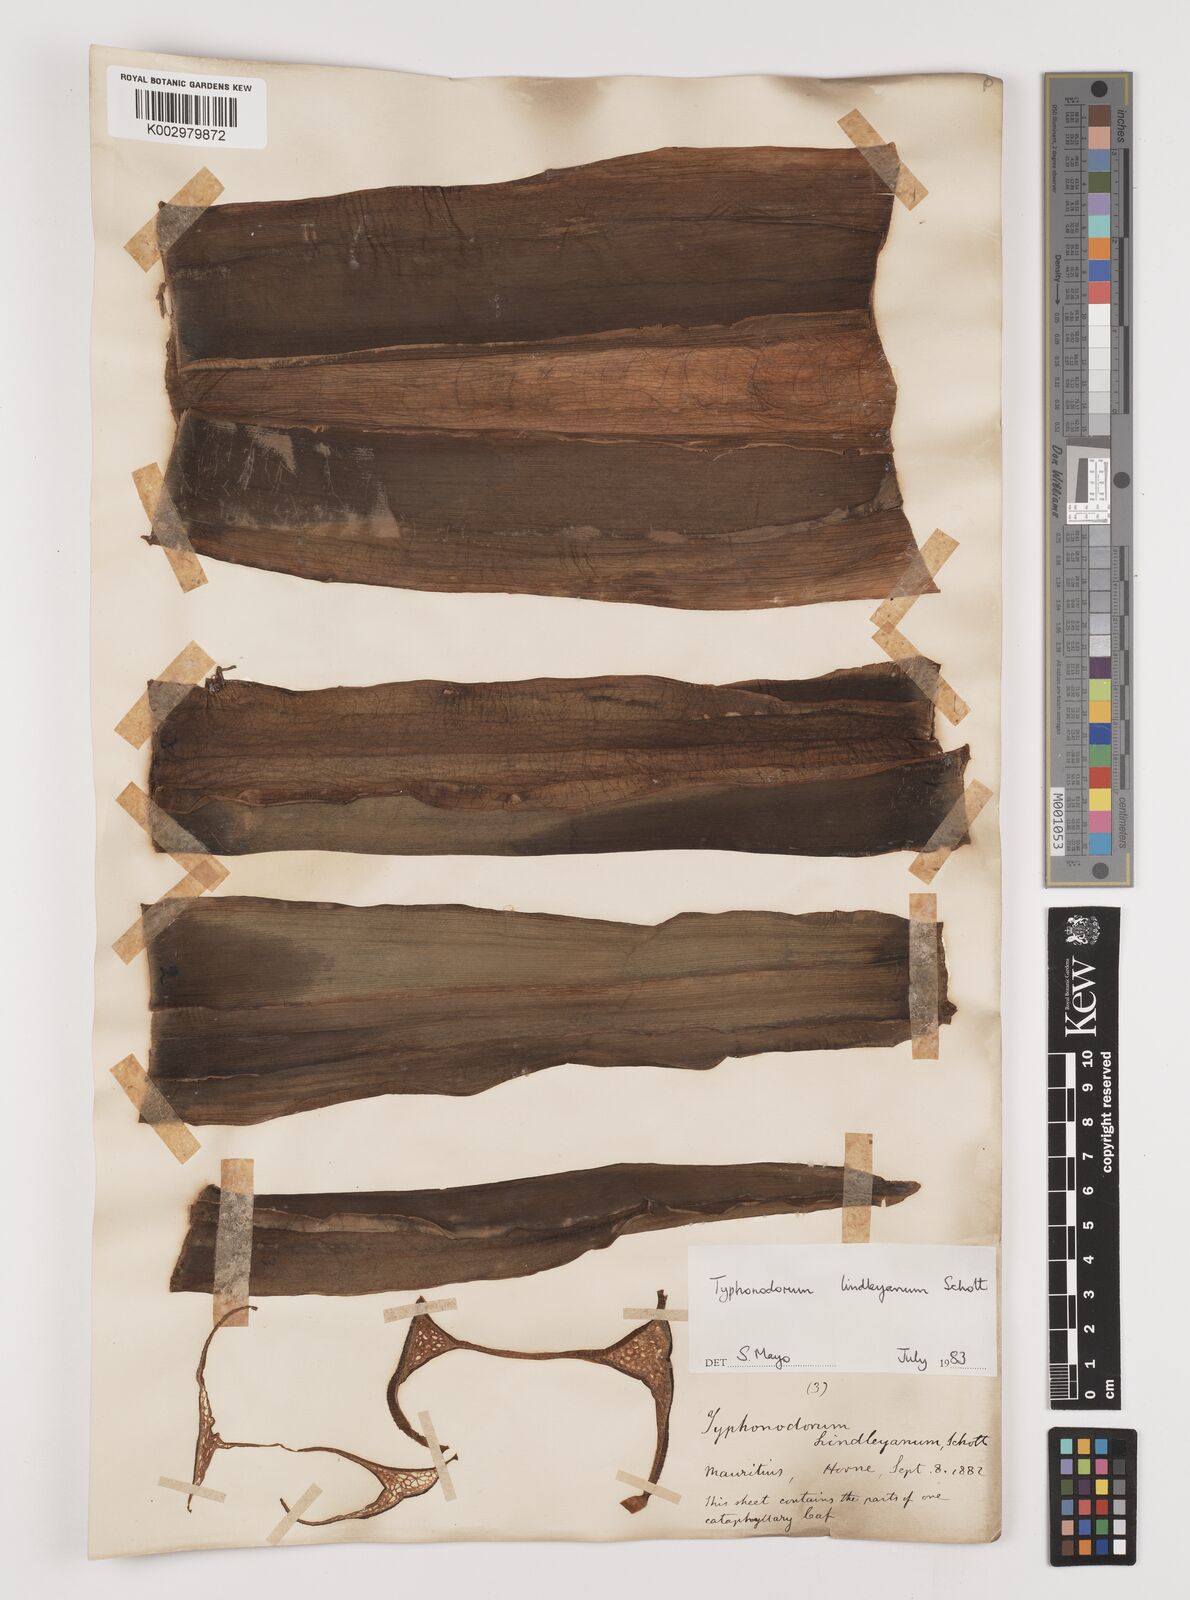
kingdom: Plantae
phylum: Tracheophyta
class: Liliopsida
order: Alismatales
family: Araceae
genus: Typhonodorum
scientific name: Typhonodorum lindleyanum
